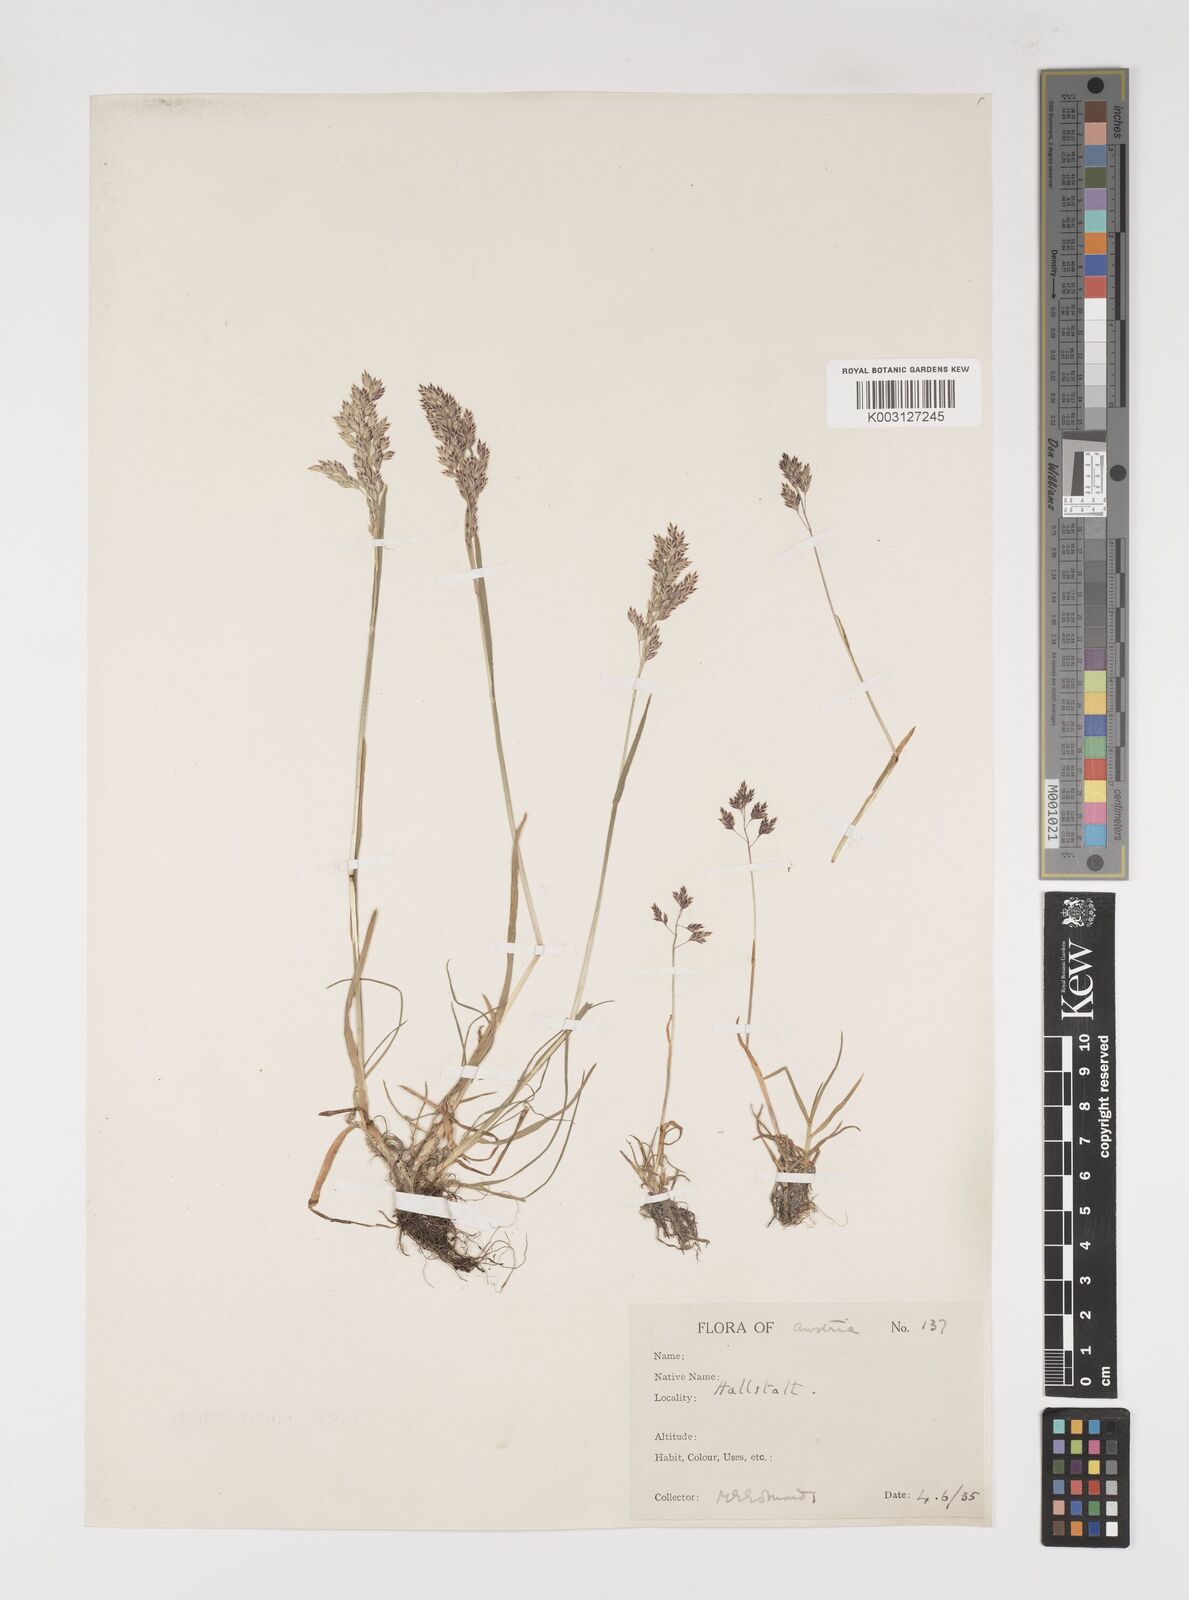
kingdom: Plantae
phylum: Tracheophyta
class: Liliopsida
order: Poales
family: Poaceae
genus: Poa
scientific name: Poa alpina
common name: Alpine bluegrass
